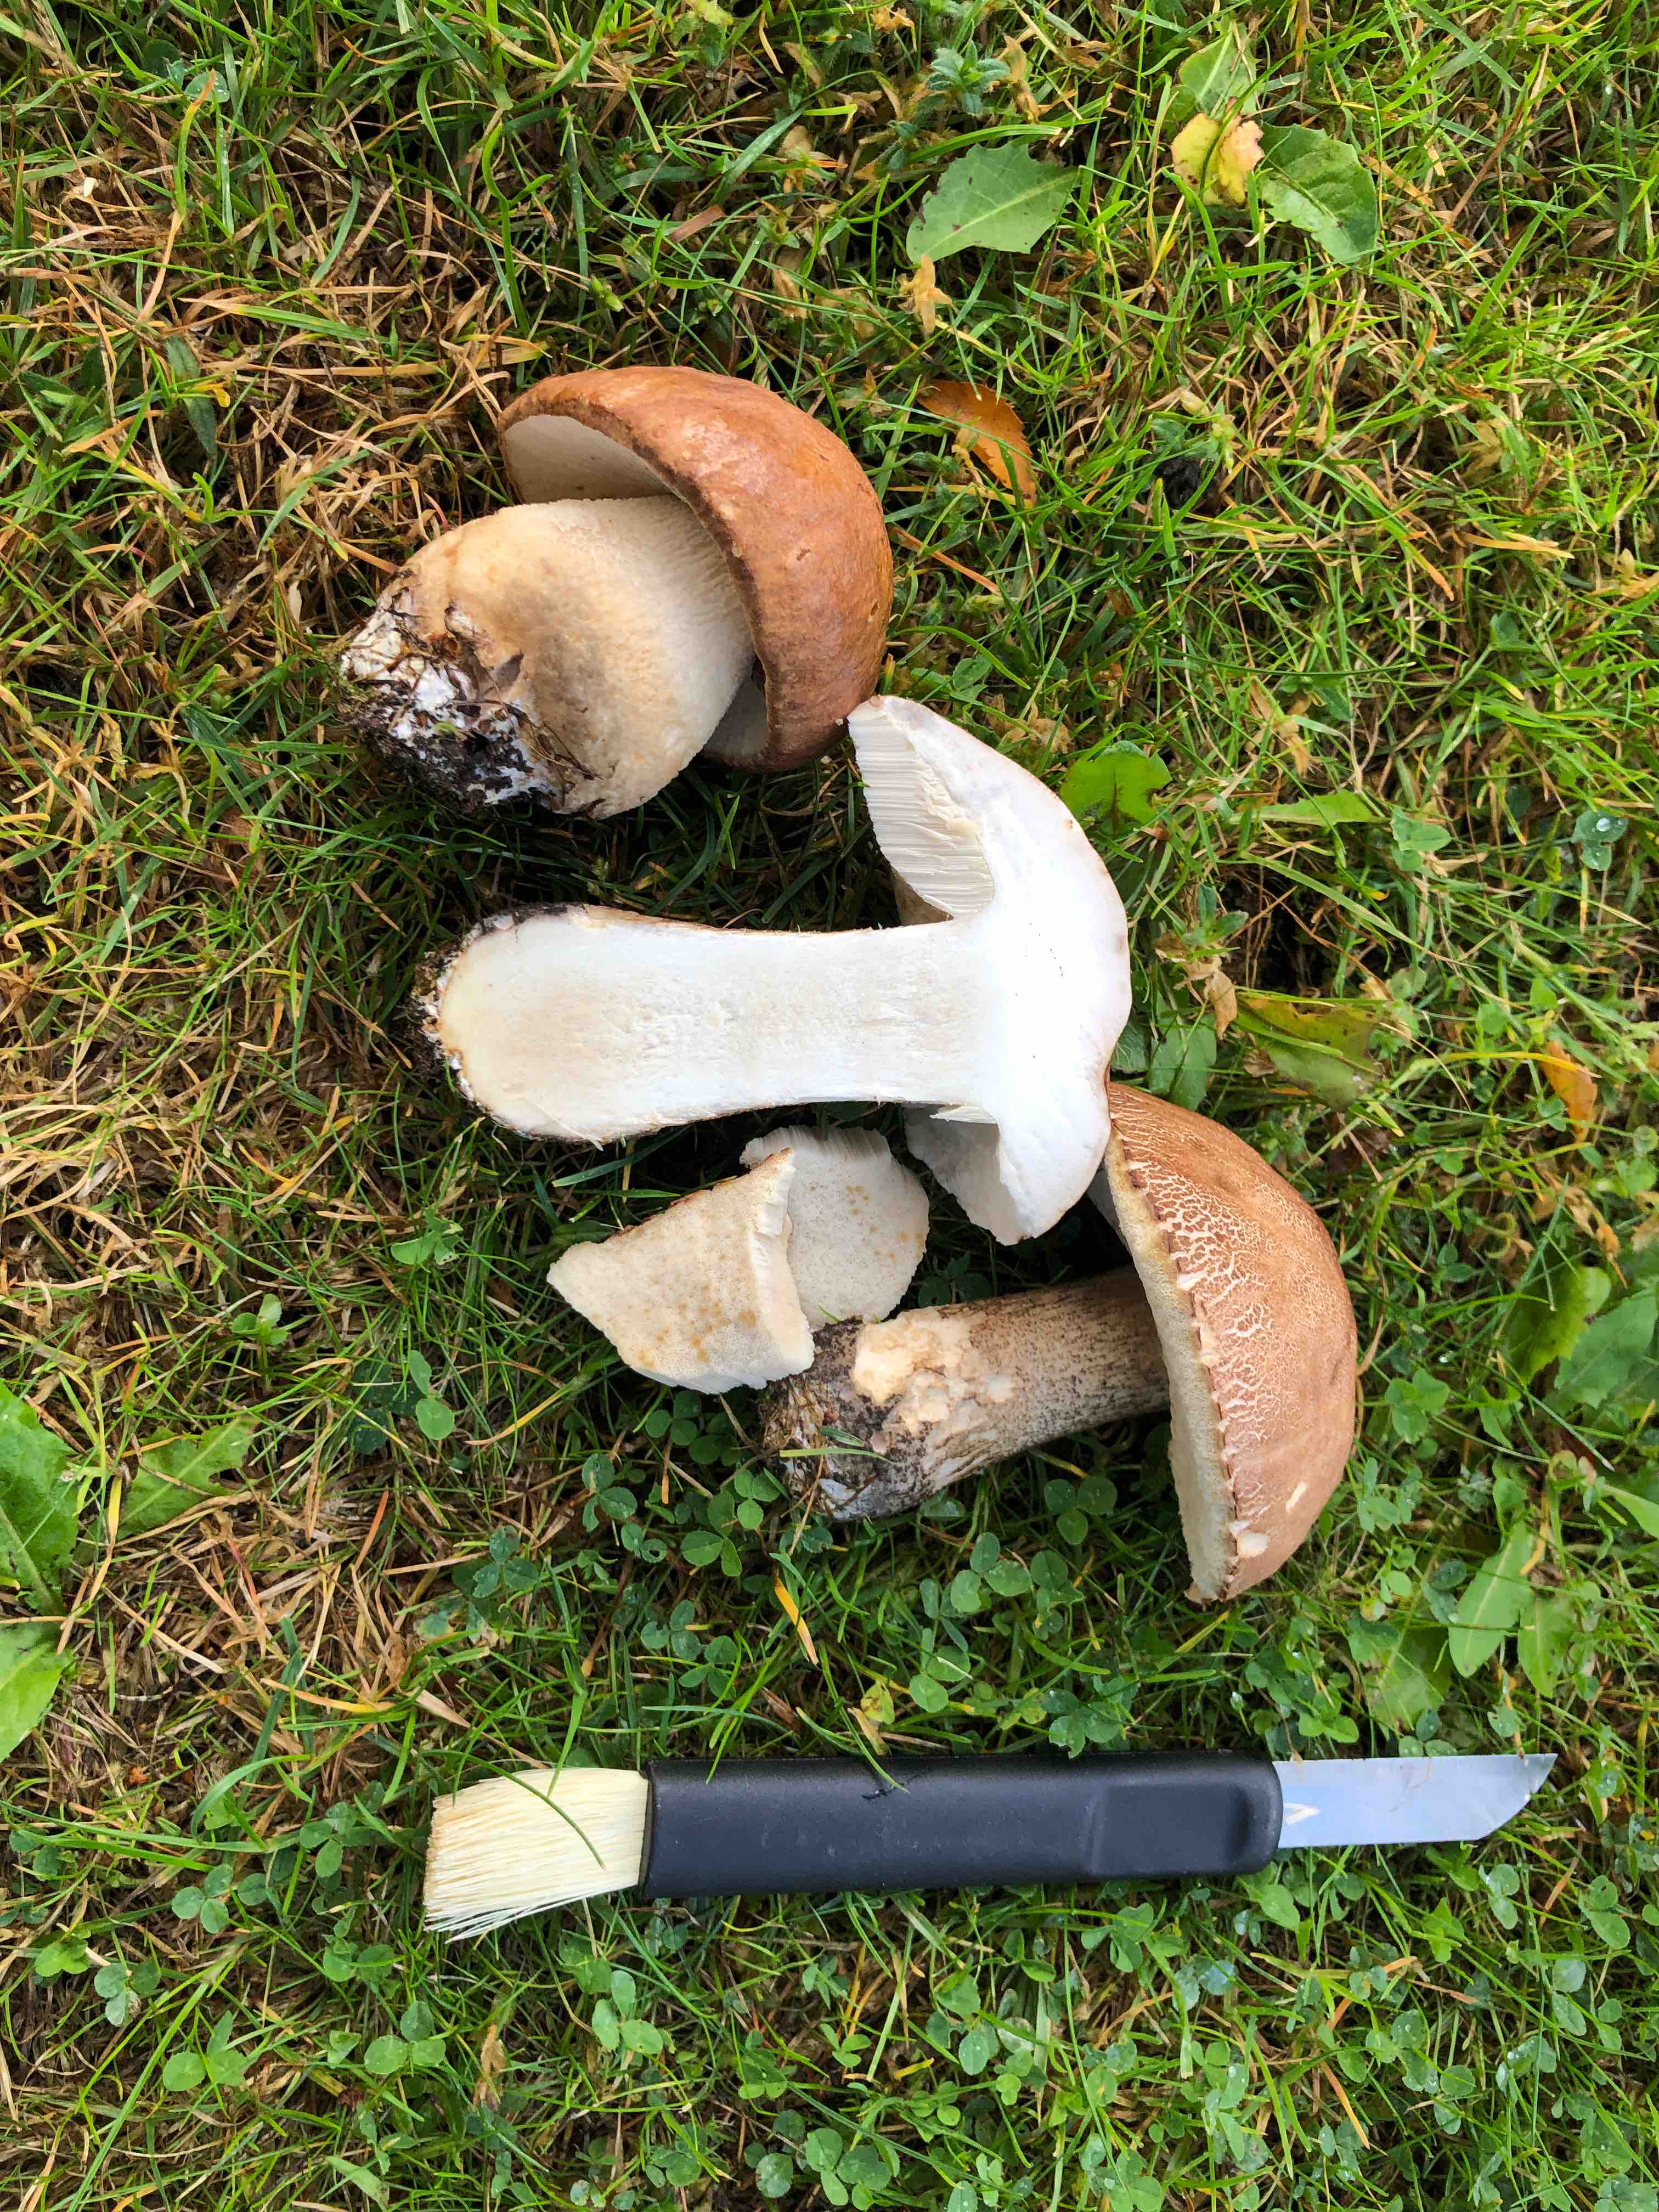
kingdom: Fungi
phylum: Basidiomycota
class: Agaricomycetes
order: Boletales
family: Boletaceae
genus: Leccinum
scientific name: Leccinum scabrum
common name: brun skælrørhat
